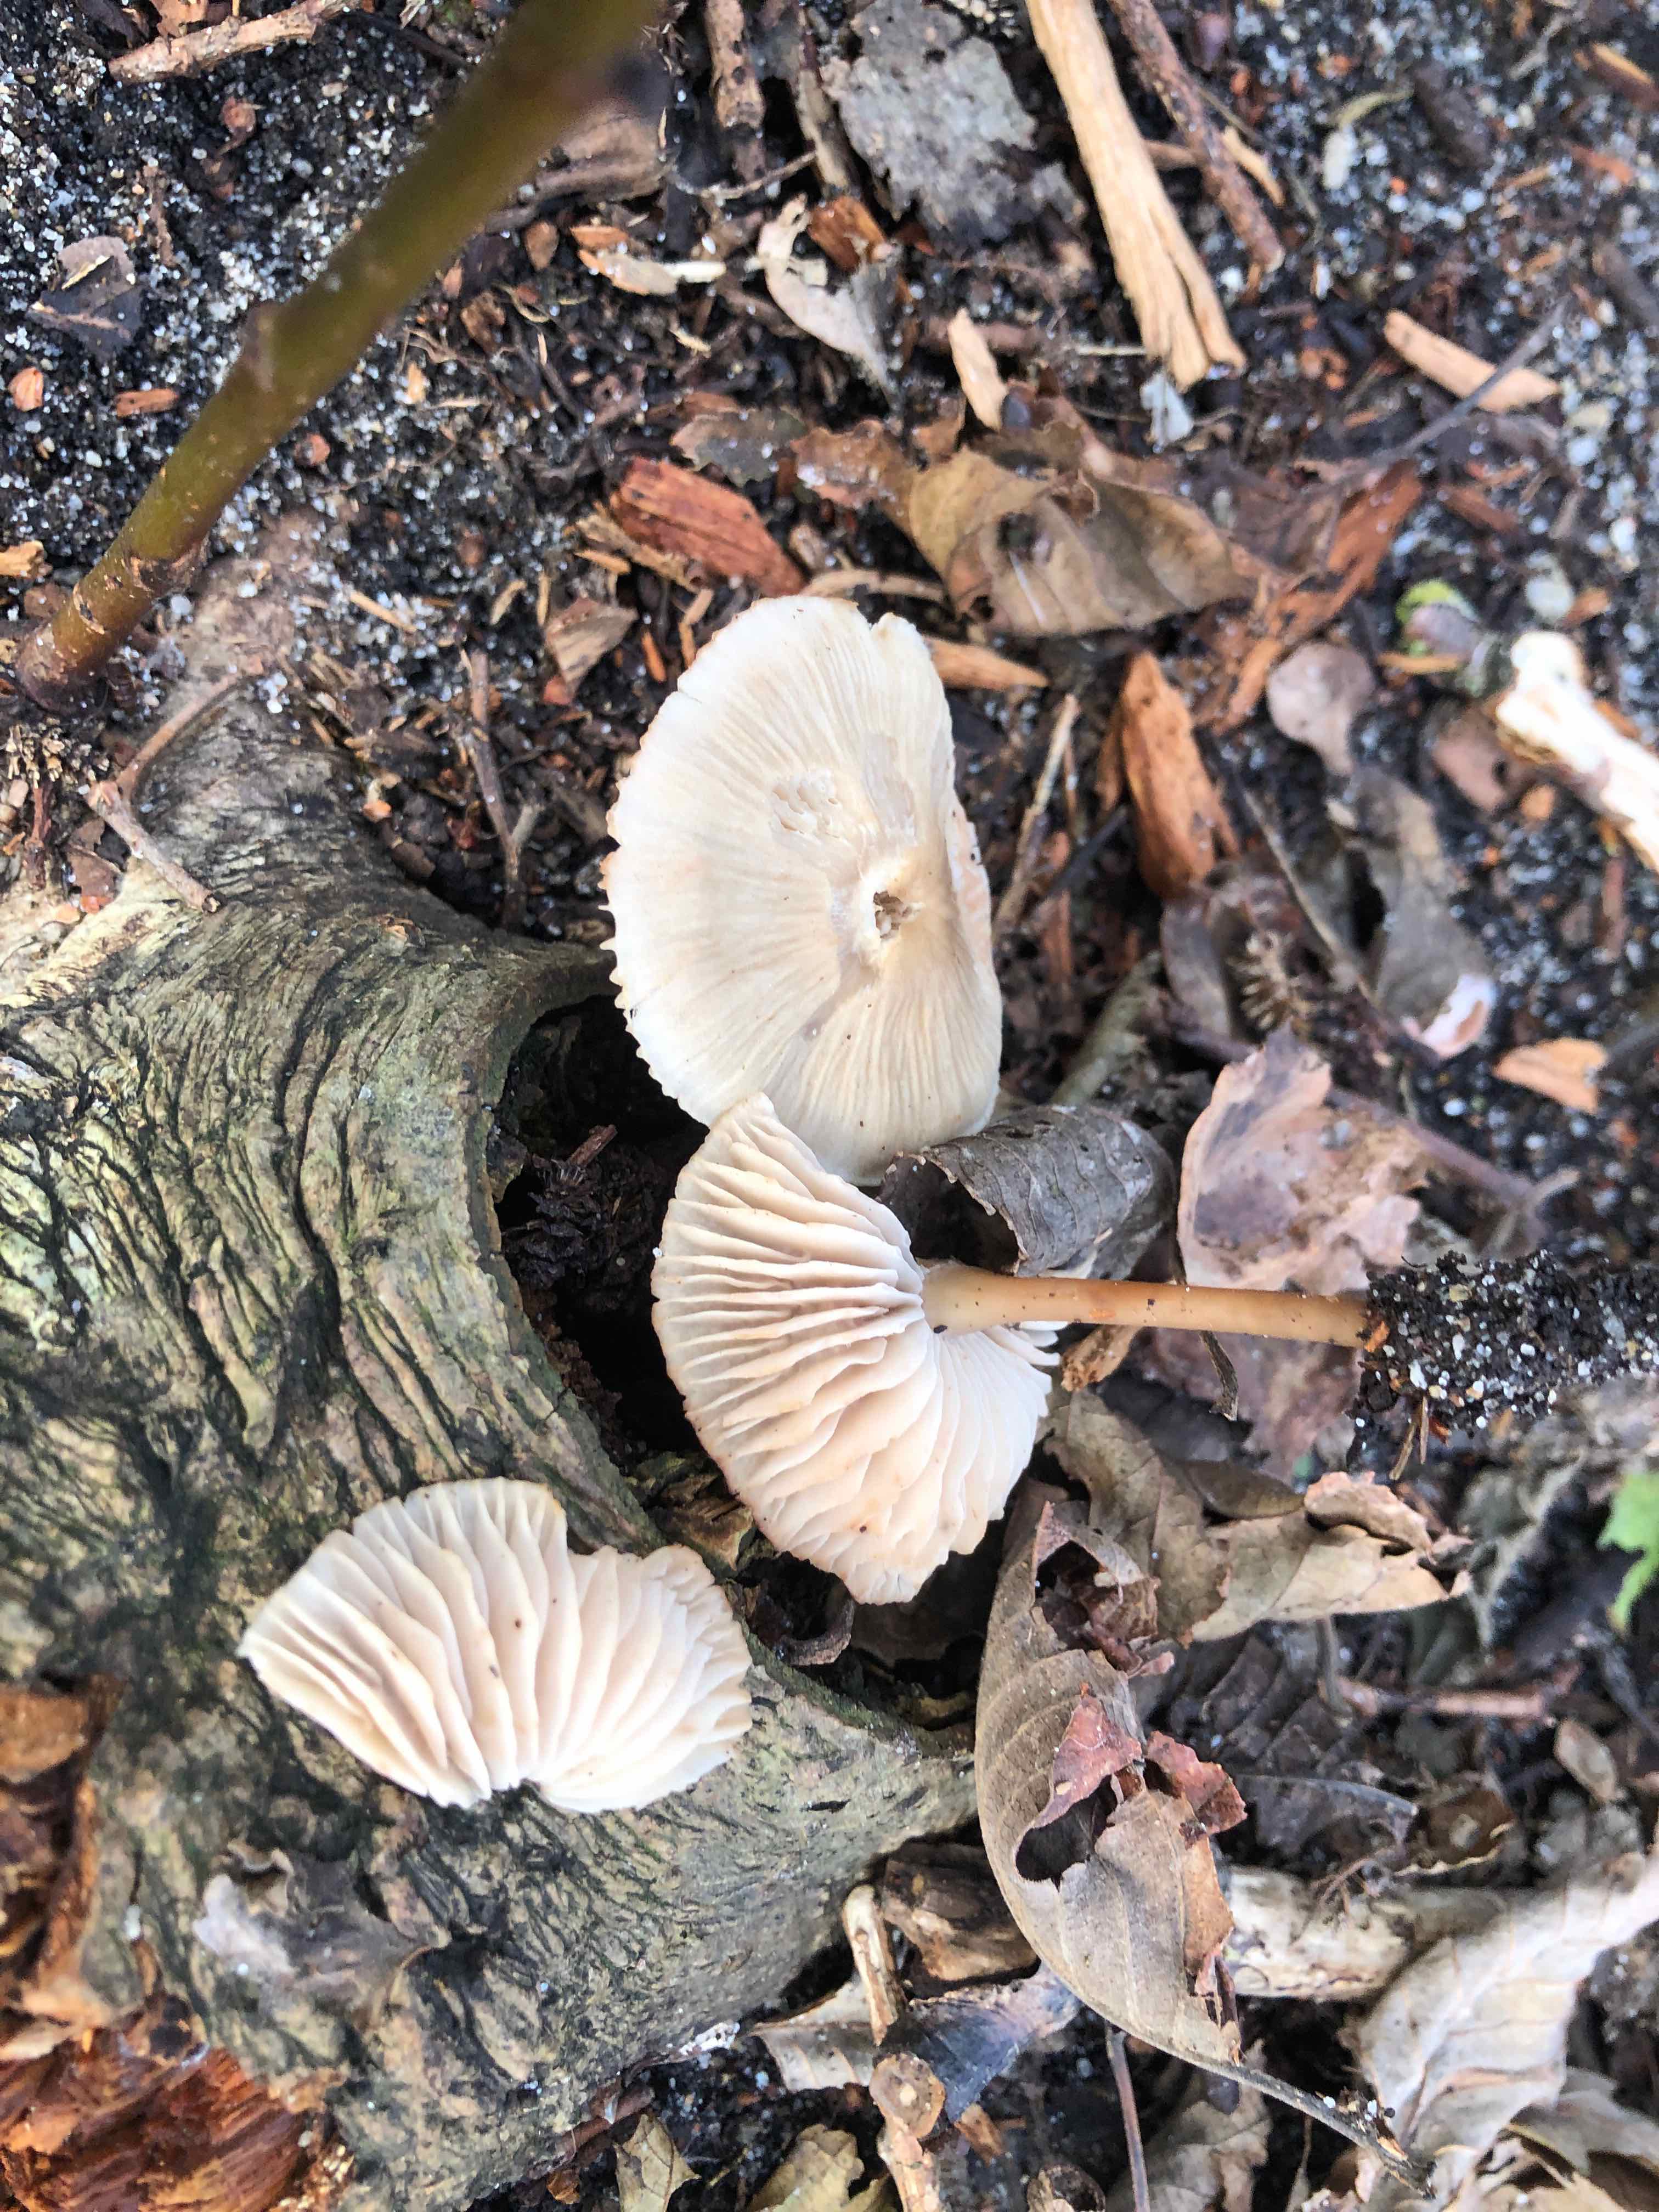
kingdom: Fungi
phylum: Basidiomycota
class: Agaricomycetes
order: Agaricales
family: Mycenaceae
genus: Mycena
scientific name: Mycena galericulata
